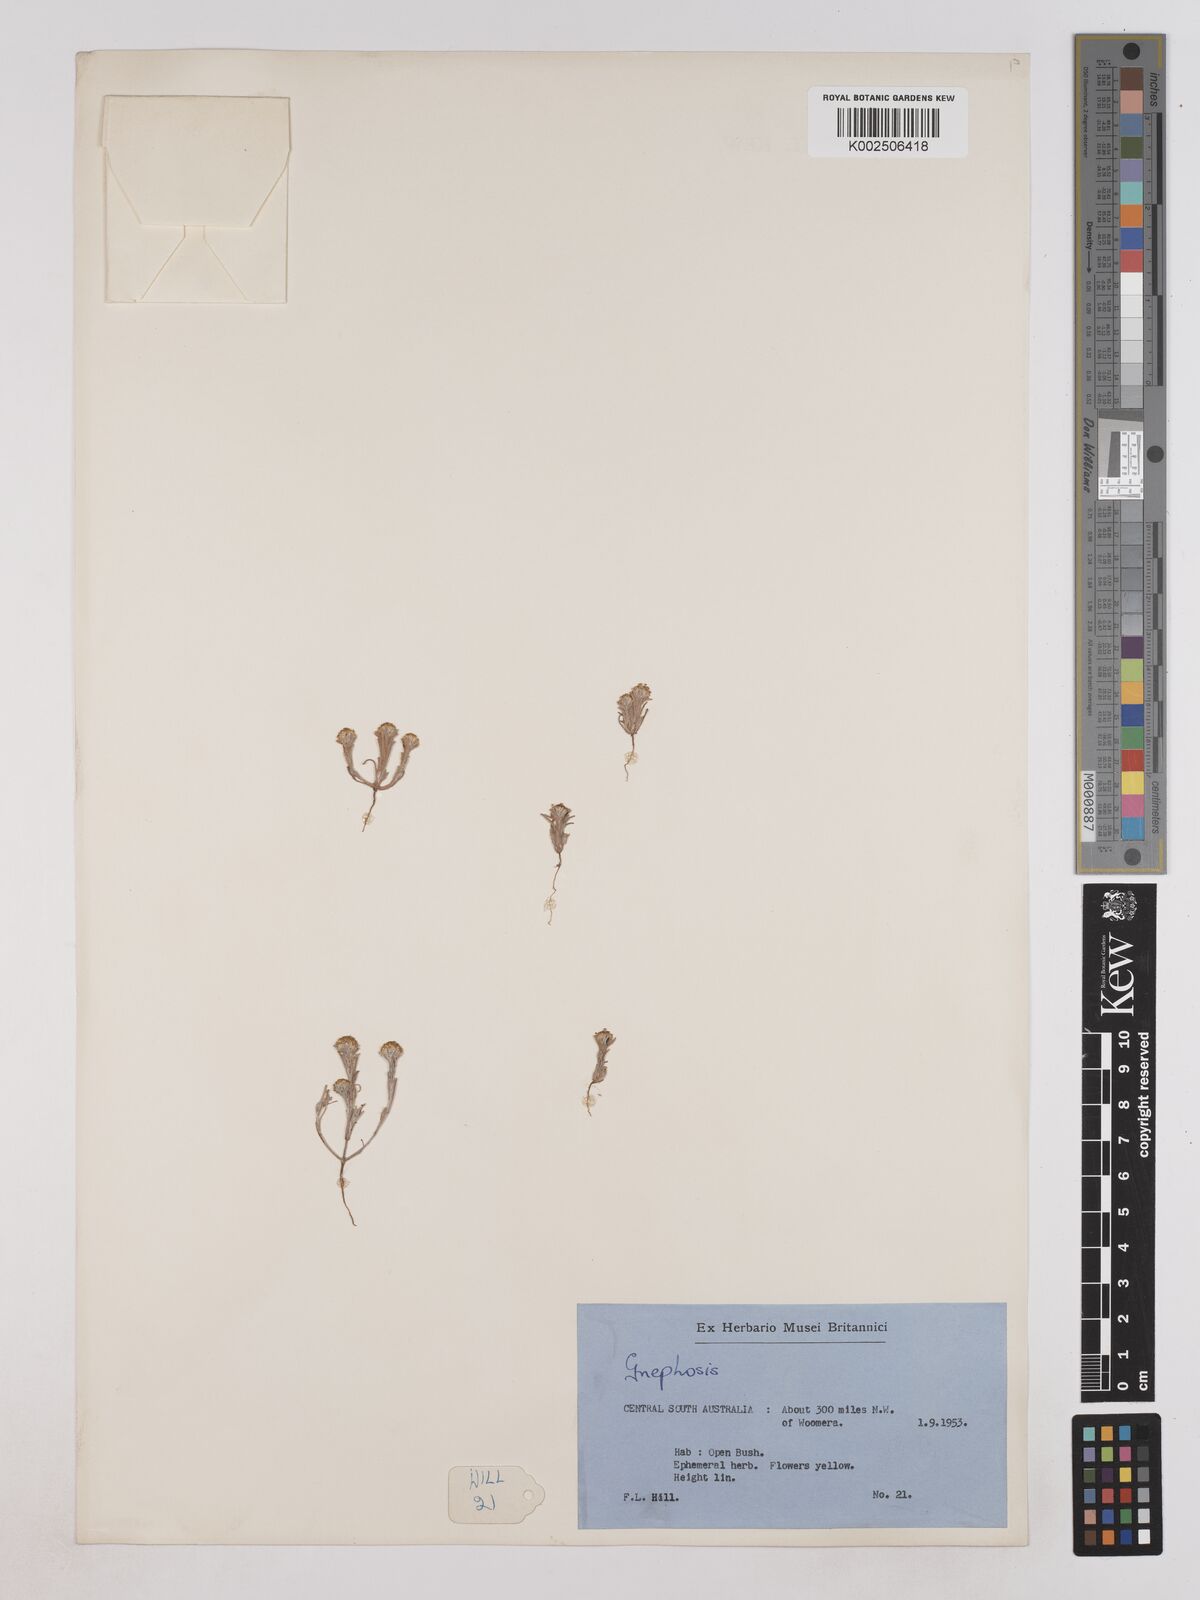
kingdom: Plantae
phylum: Tracheophyta
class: Magnoliopsida
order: Asterales
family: Asteraceae
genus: Trichanthodium
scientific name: Trichanthodium skirrophorum
